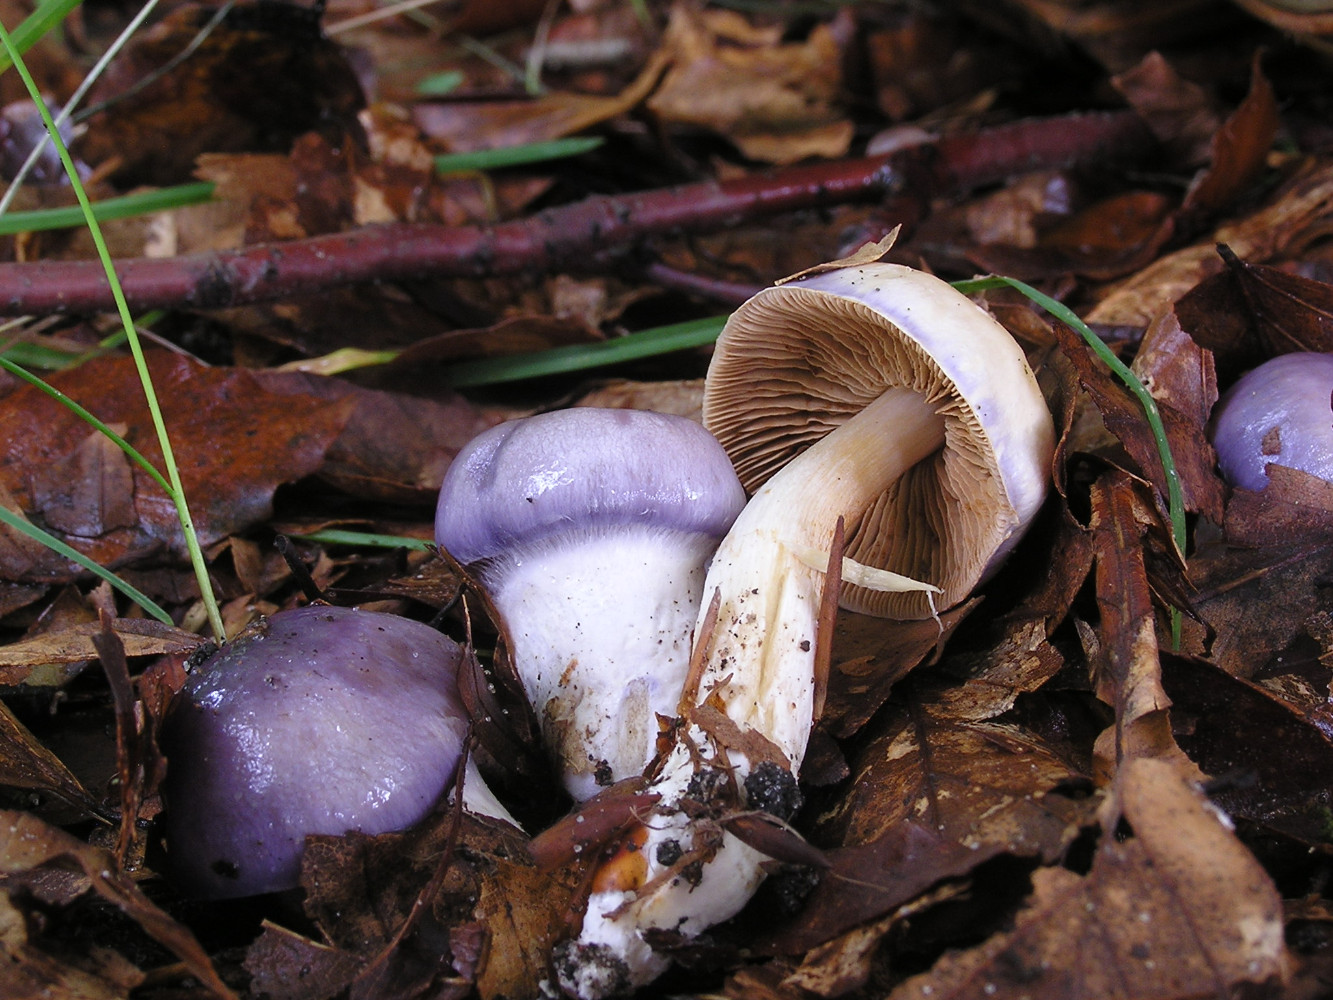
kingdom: Fungi
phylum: Basidiomycota
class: Agaricomycetes
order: Agaricales
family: Cortinariaceae
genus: Thaxterogaster
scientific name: Thaxterogaster croceocoeruleus
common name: blågullig slørhat
